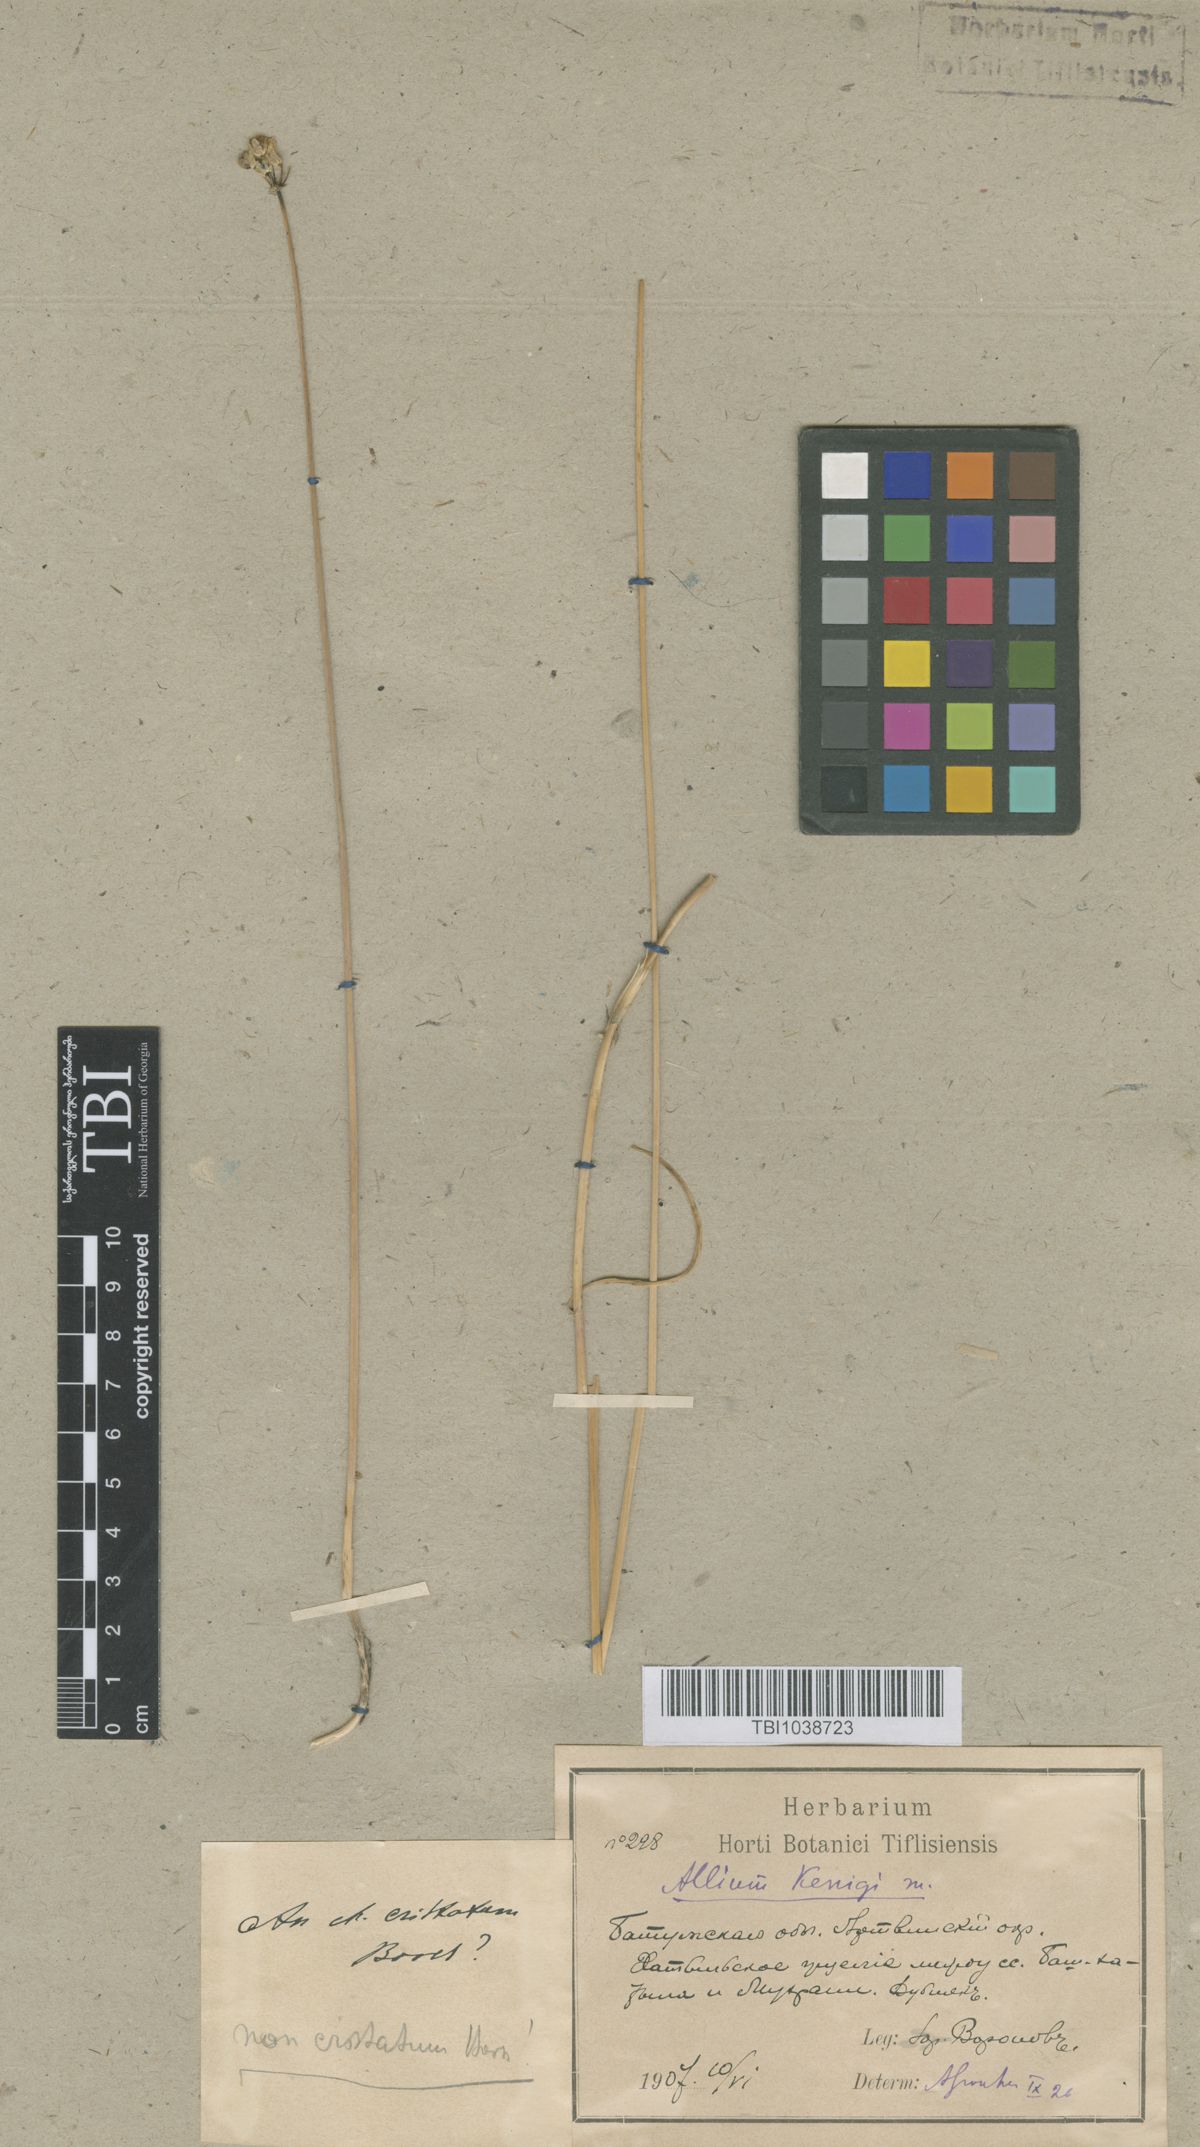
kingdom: Plantae
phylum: Tracheophyta
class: Liliopsida
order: Asparagales
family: Amaryllidaceae
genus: Allium
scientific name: Allium koenigianum
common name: Koenig's onion
